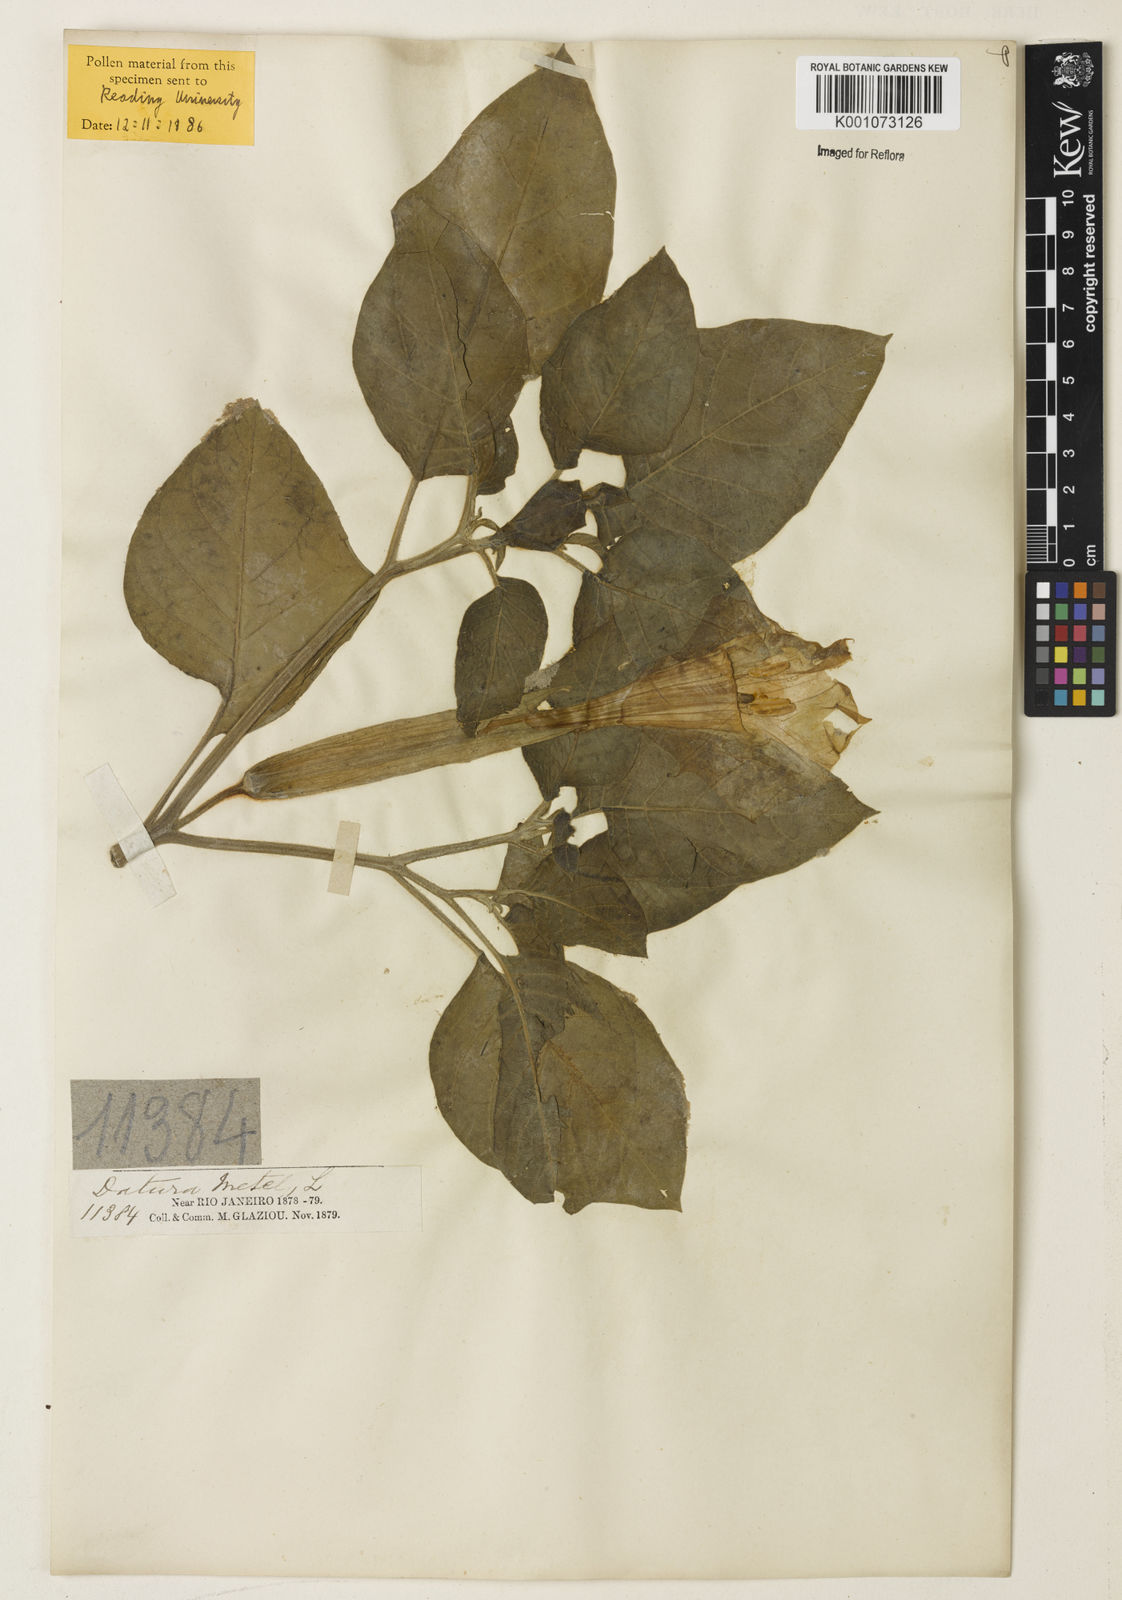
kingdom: Plantae
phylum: Tracheophyta
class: Magnoliopsida
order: Solanales
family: Solanaceae
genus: Datura
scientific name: Datura metel
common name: Jimsonweed
